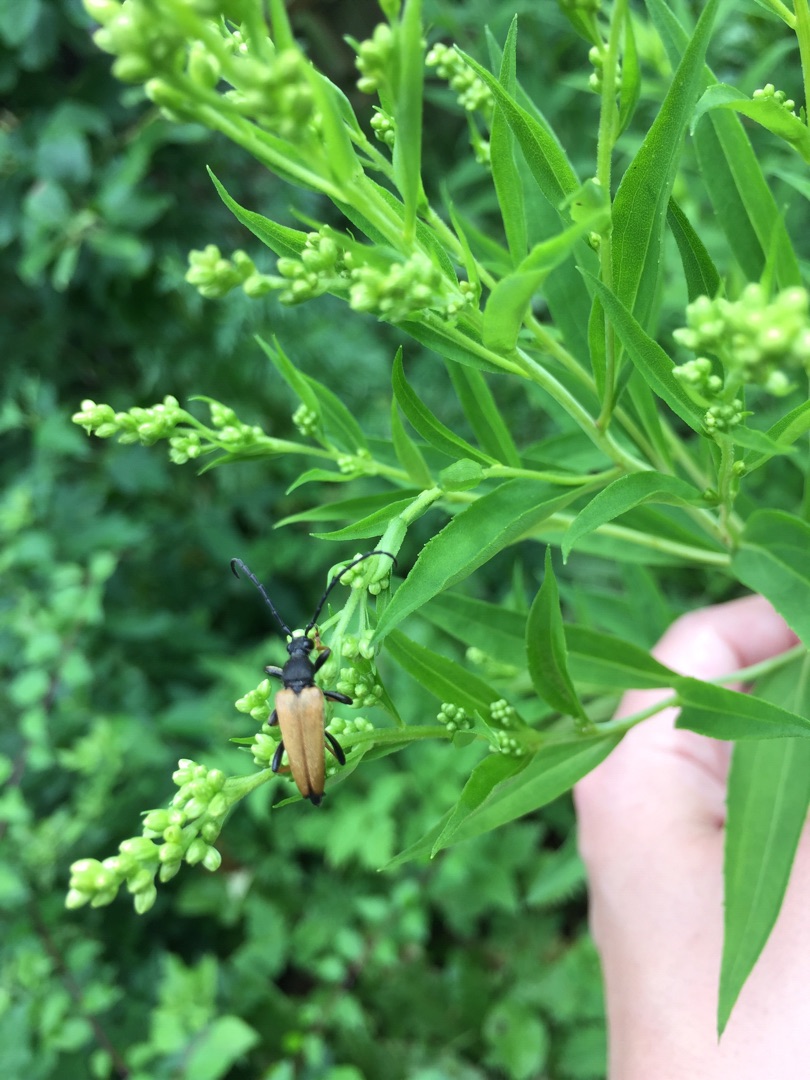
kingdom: Animalia
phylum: Arthropoda
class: Insecta
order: Coleoptera
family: Cerambycidae
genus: Stictoleptura
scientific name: Stictoleptura rubra
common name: Rød blomsterbuk
